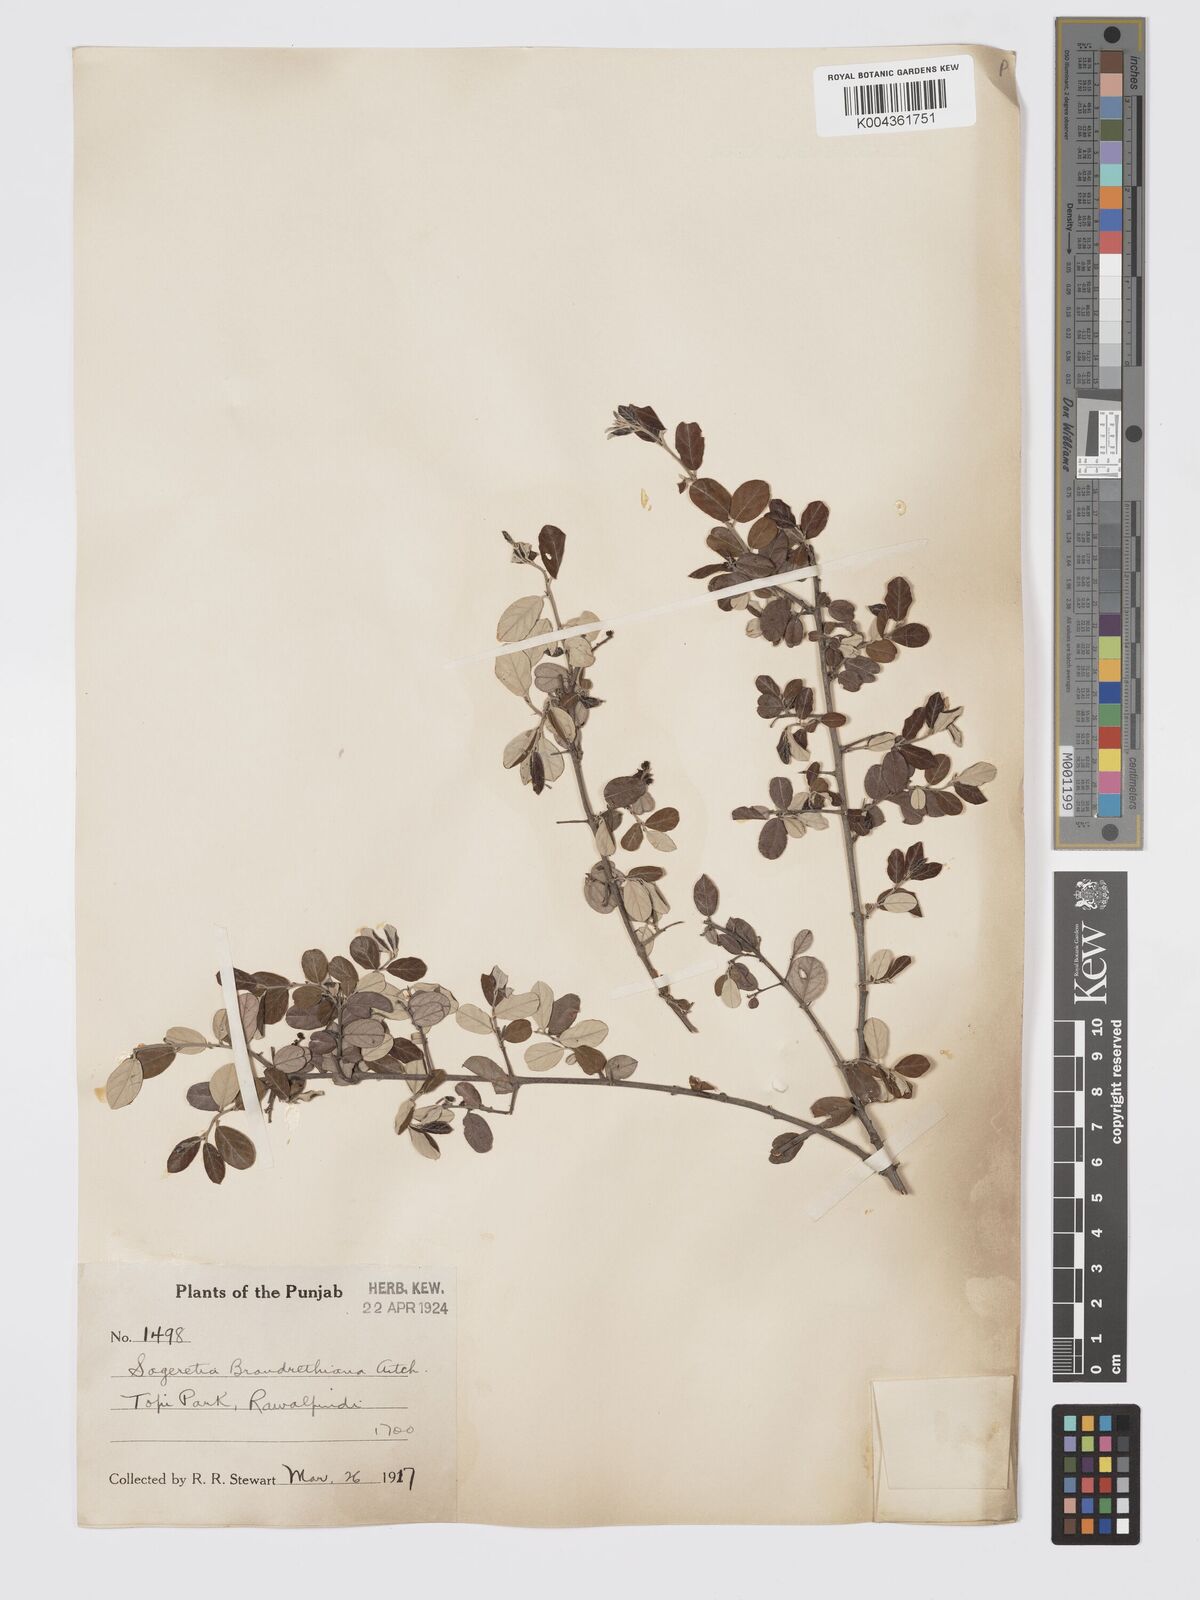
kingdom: Plantae
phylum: Tracheophyta
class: Magnoliopsida
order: Rosales
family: Rhamnaceae
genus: Sageretia
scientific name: Sageretia brandrethiana
